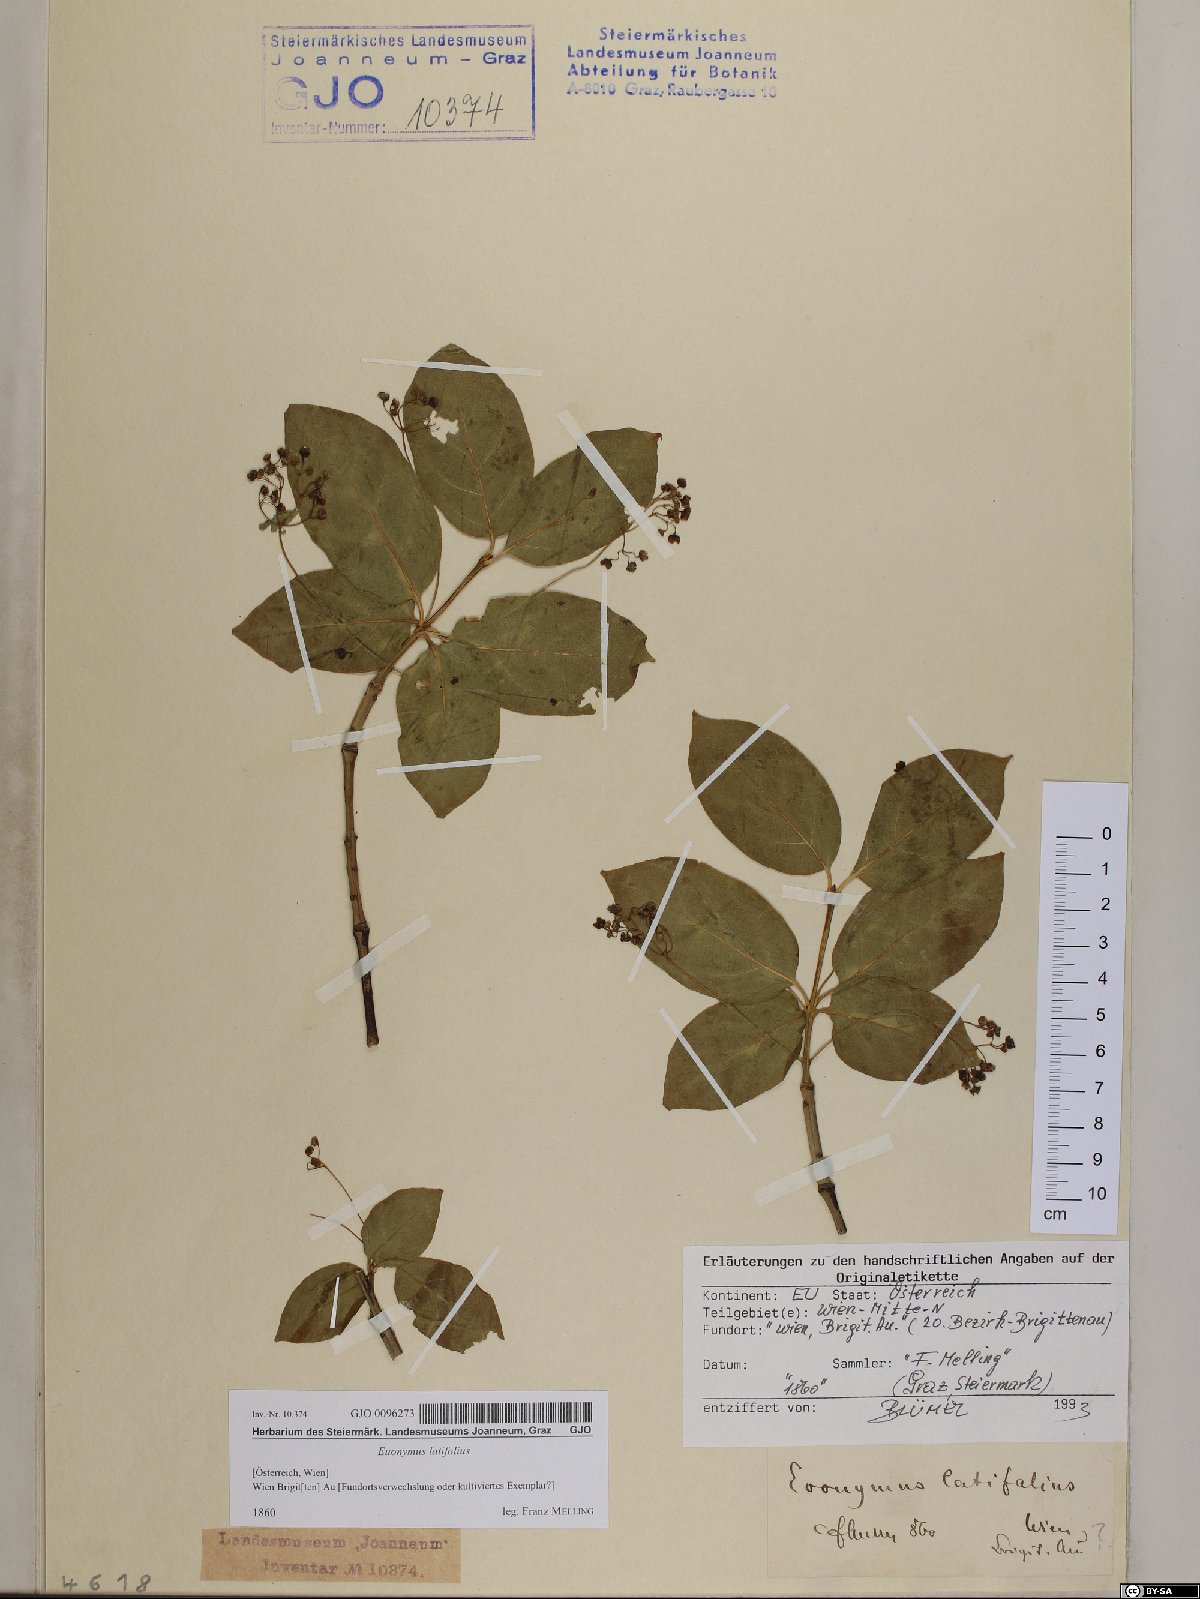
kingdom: Plantae
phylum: Tracheophyta
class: Magnoliopsida
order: Celastrales
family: Celastraceae
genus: Euonymus
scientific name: Euonymus latifolius
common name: Large-leaved spindle
